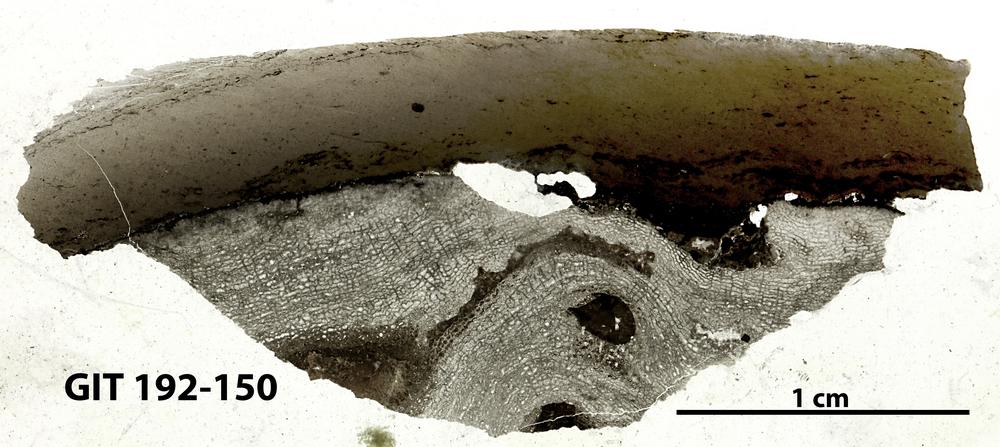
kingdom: Animalia
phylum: Porifera
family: Clathrodictyidae
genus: Oslodictyon
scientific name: Oslodictyon
